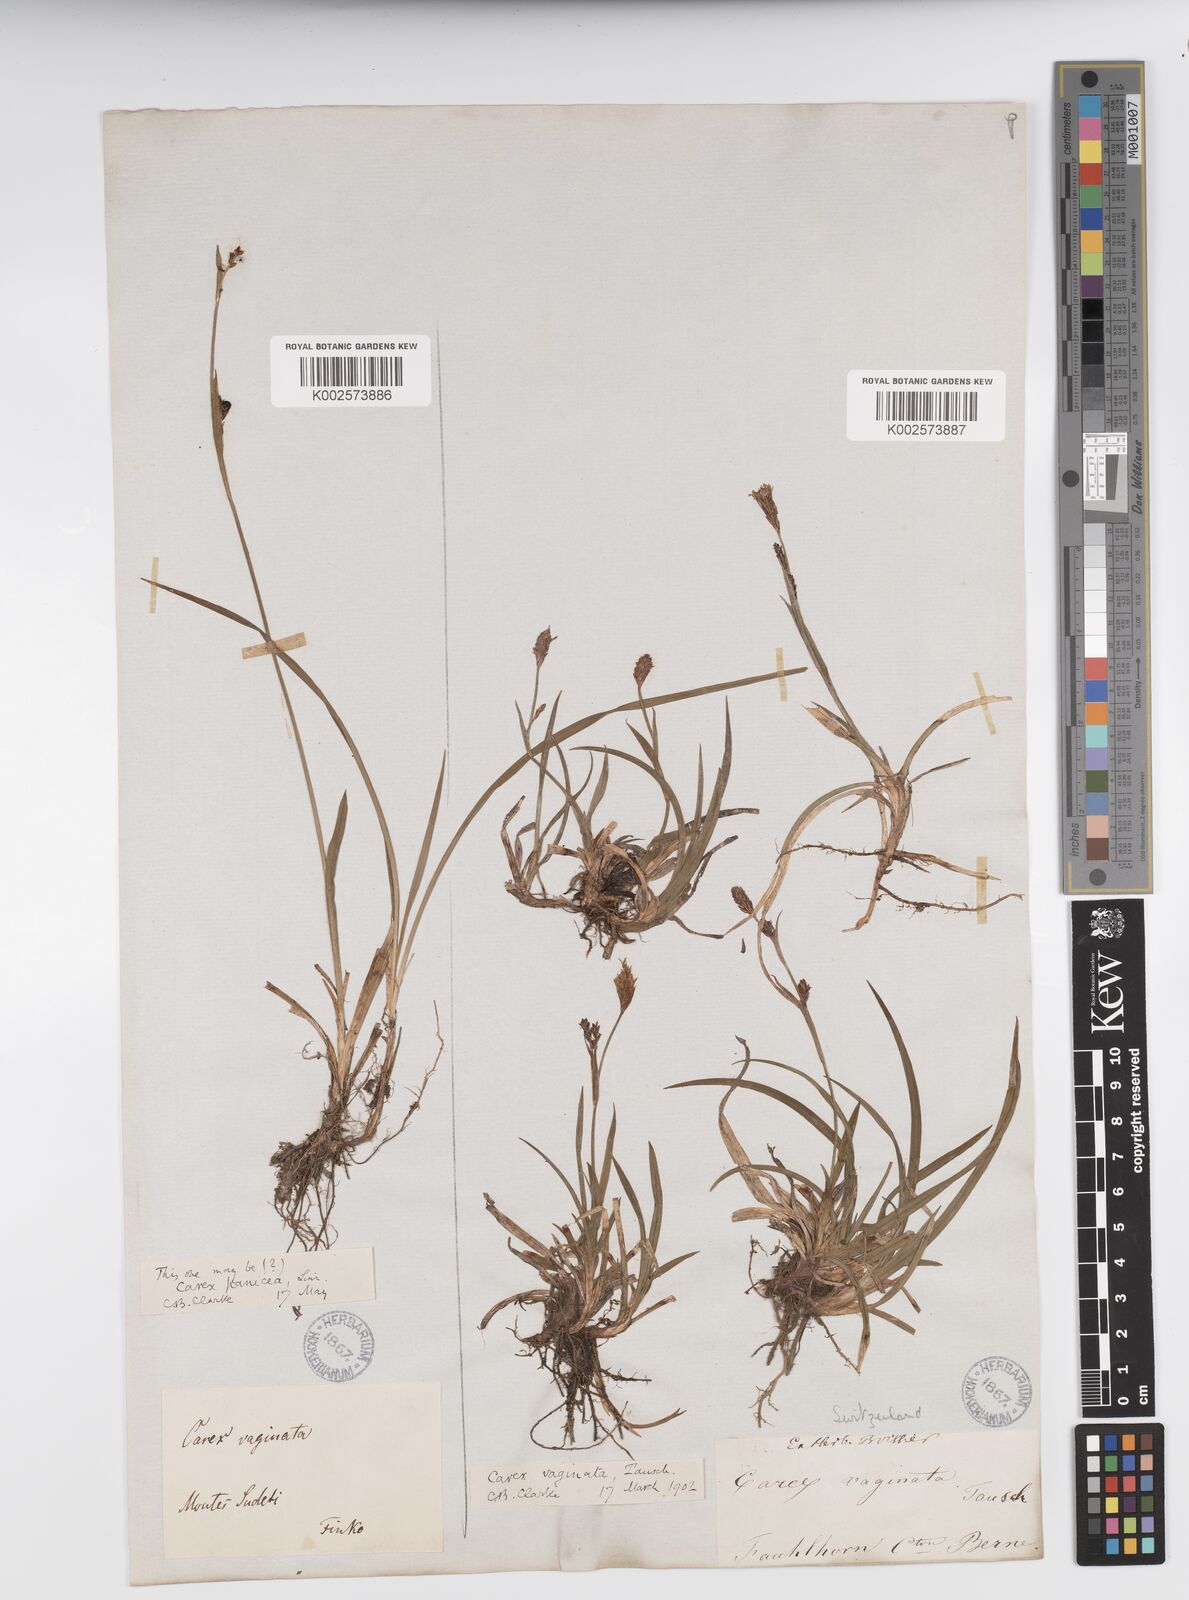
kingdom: Plantae
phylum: Tracheophyta
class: Liliopsida
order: Poales
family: Cyperaceae
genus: Carex
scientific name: Carex vaginata
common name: Sheathed sedge
